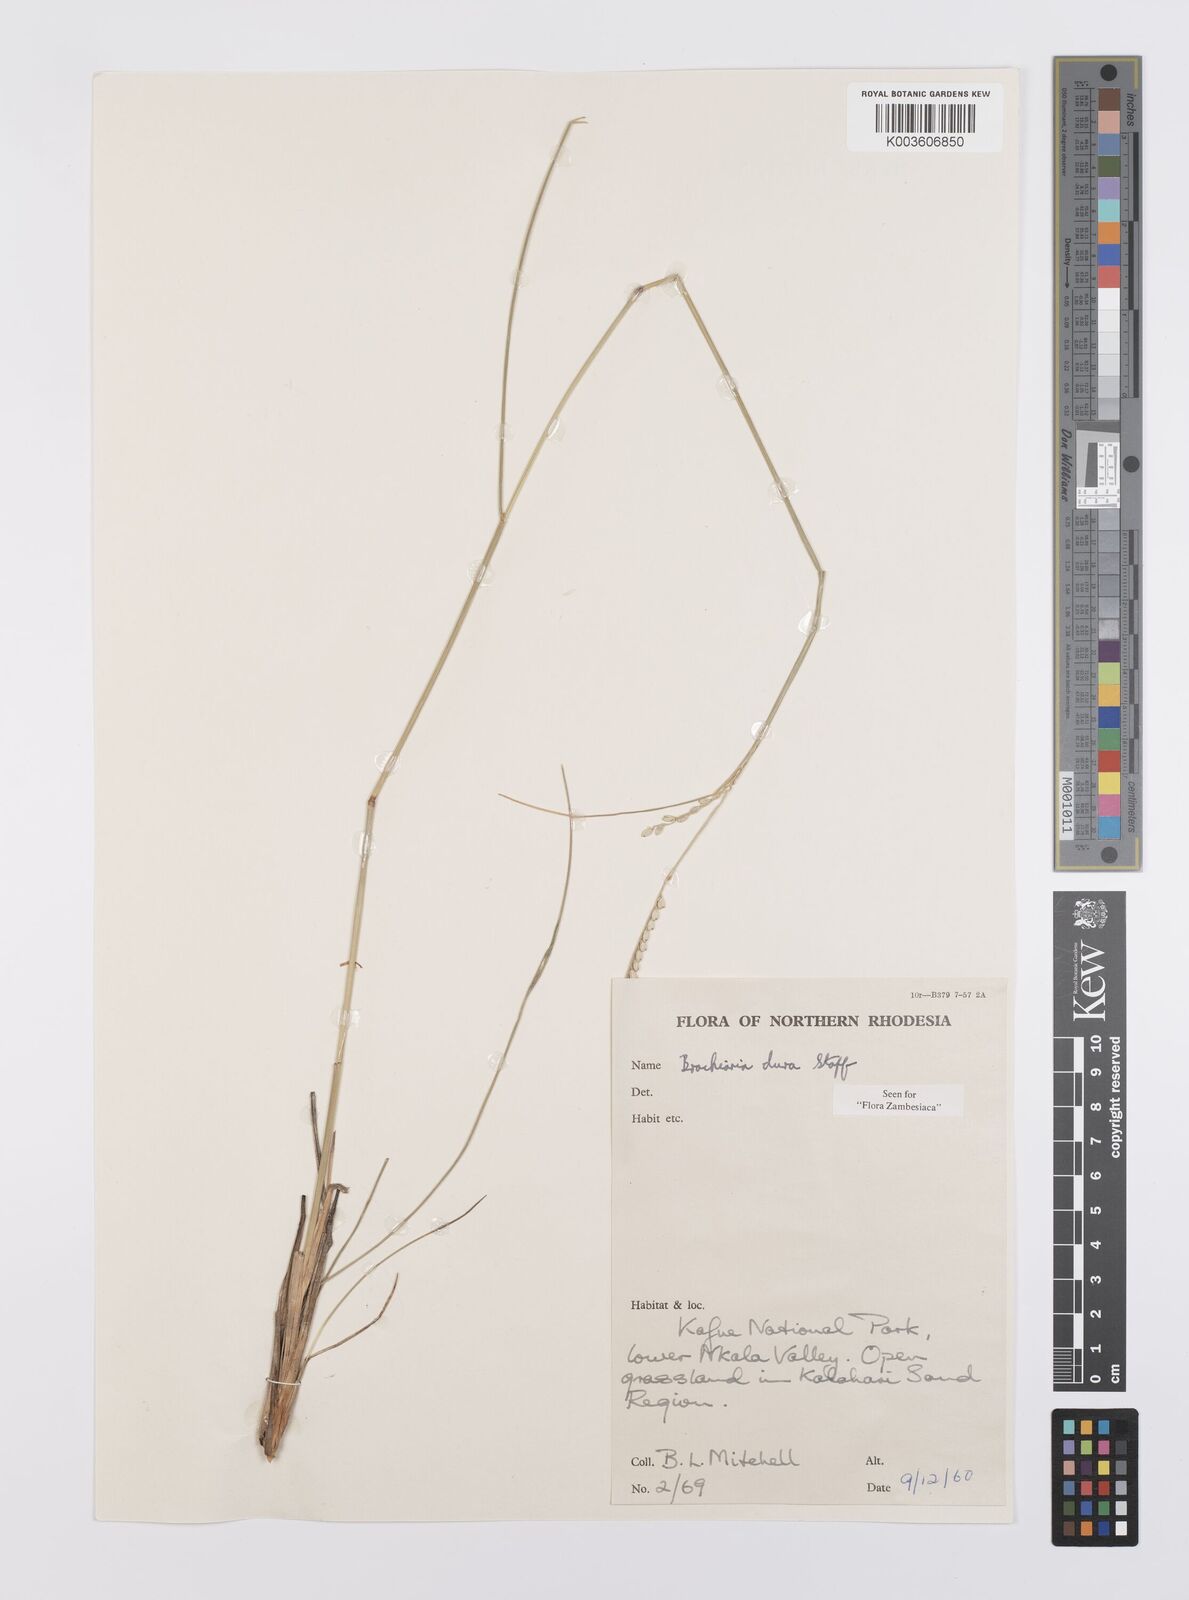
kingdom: Plantae
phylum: Tracheophyta
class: Liliopsida
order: Poales
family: Poaceae
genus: Urochloa
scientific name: Urochloa dura
